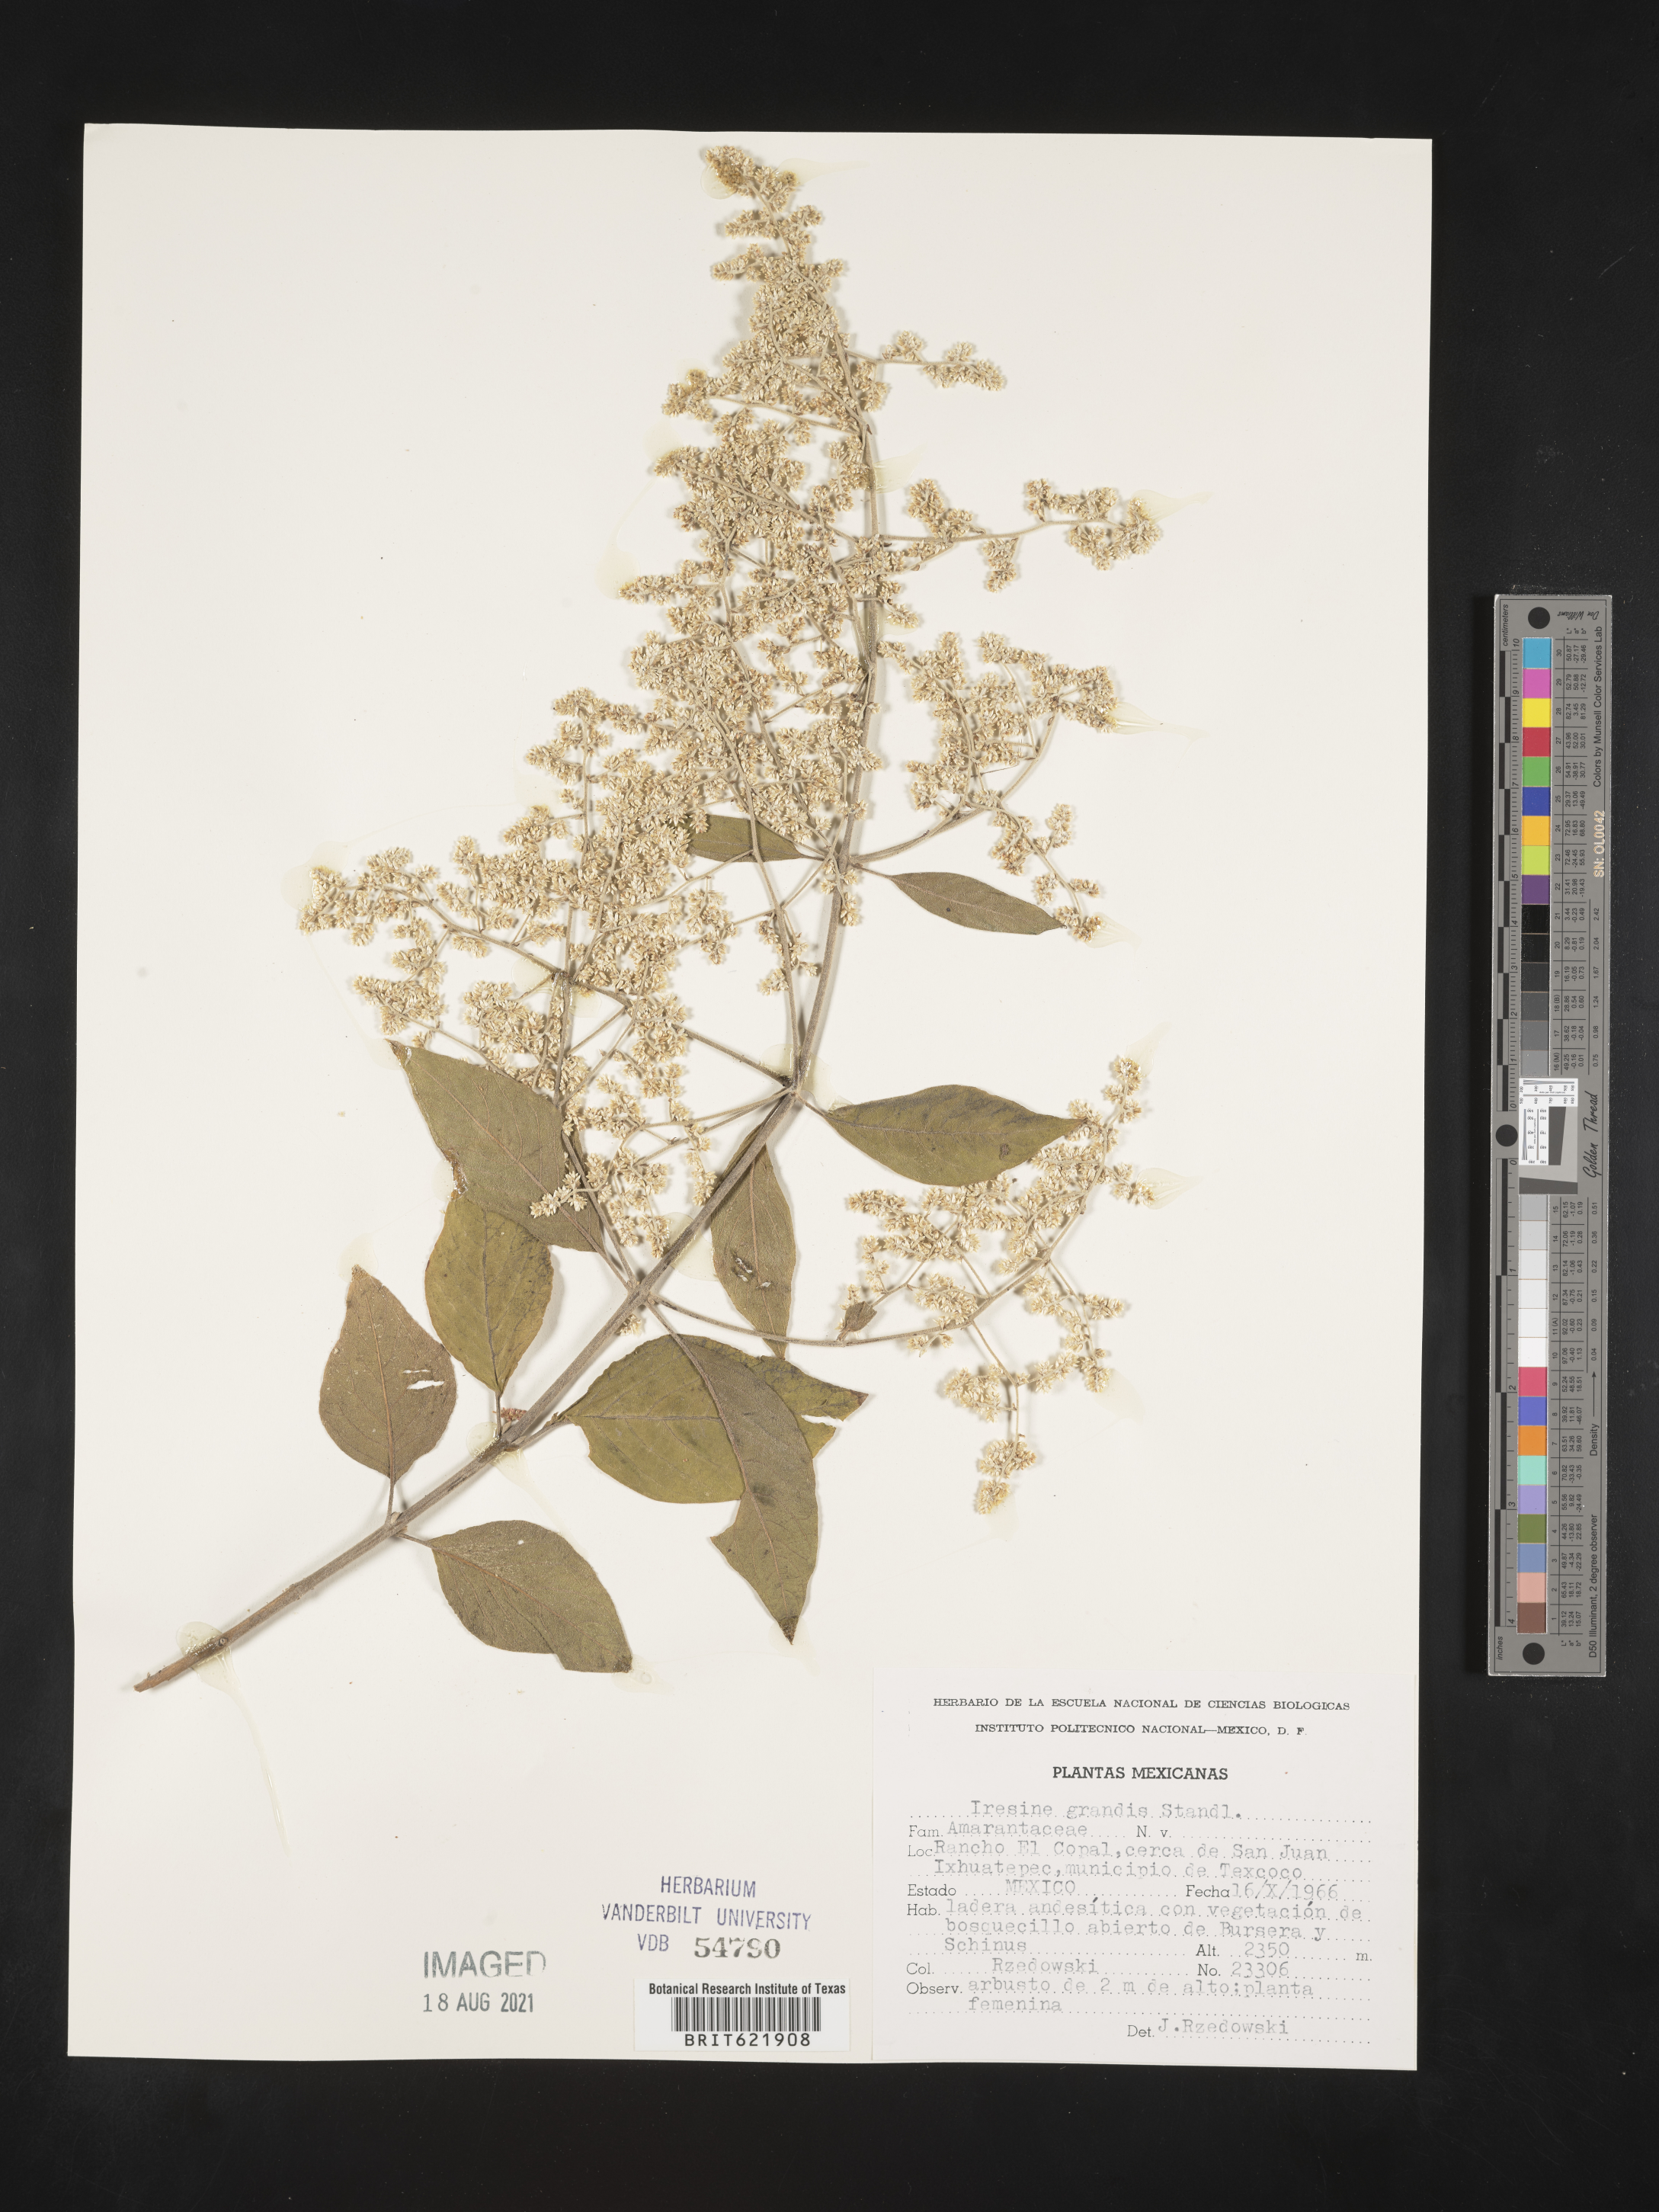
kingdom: Plantae
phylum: Tracheophyta
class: Magnoliopsida
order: Caryophyllales
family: Amaranthaceae
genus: Iresine
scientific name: Iresine
